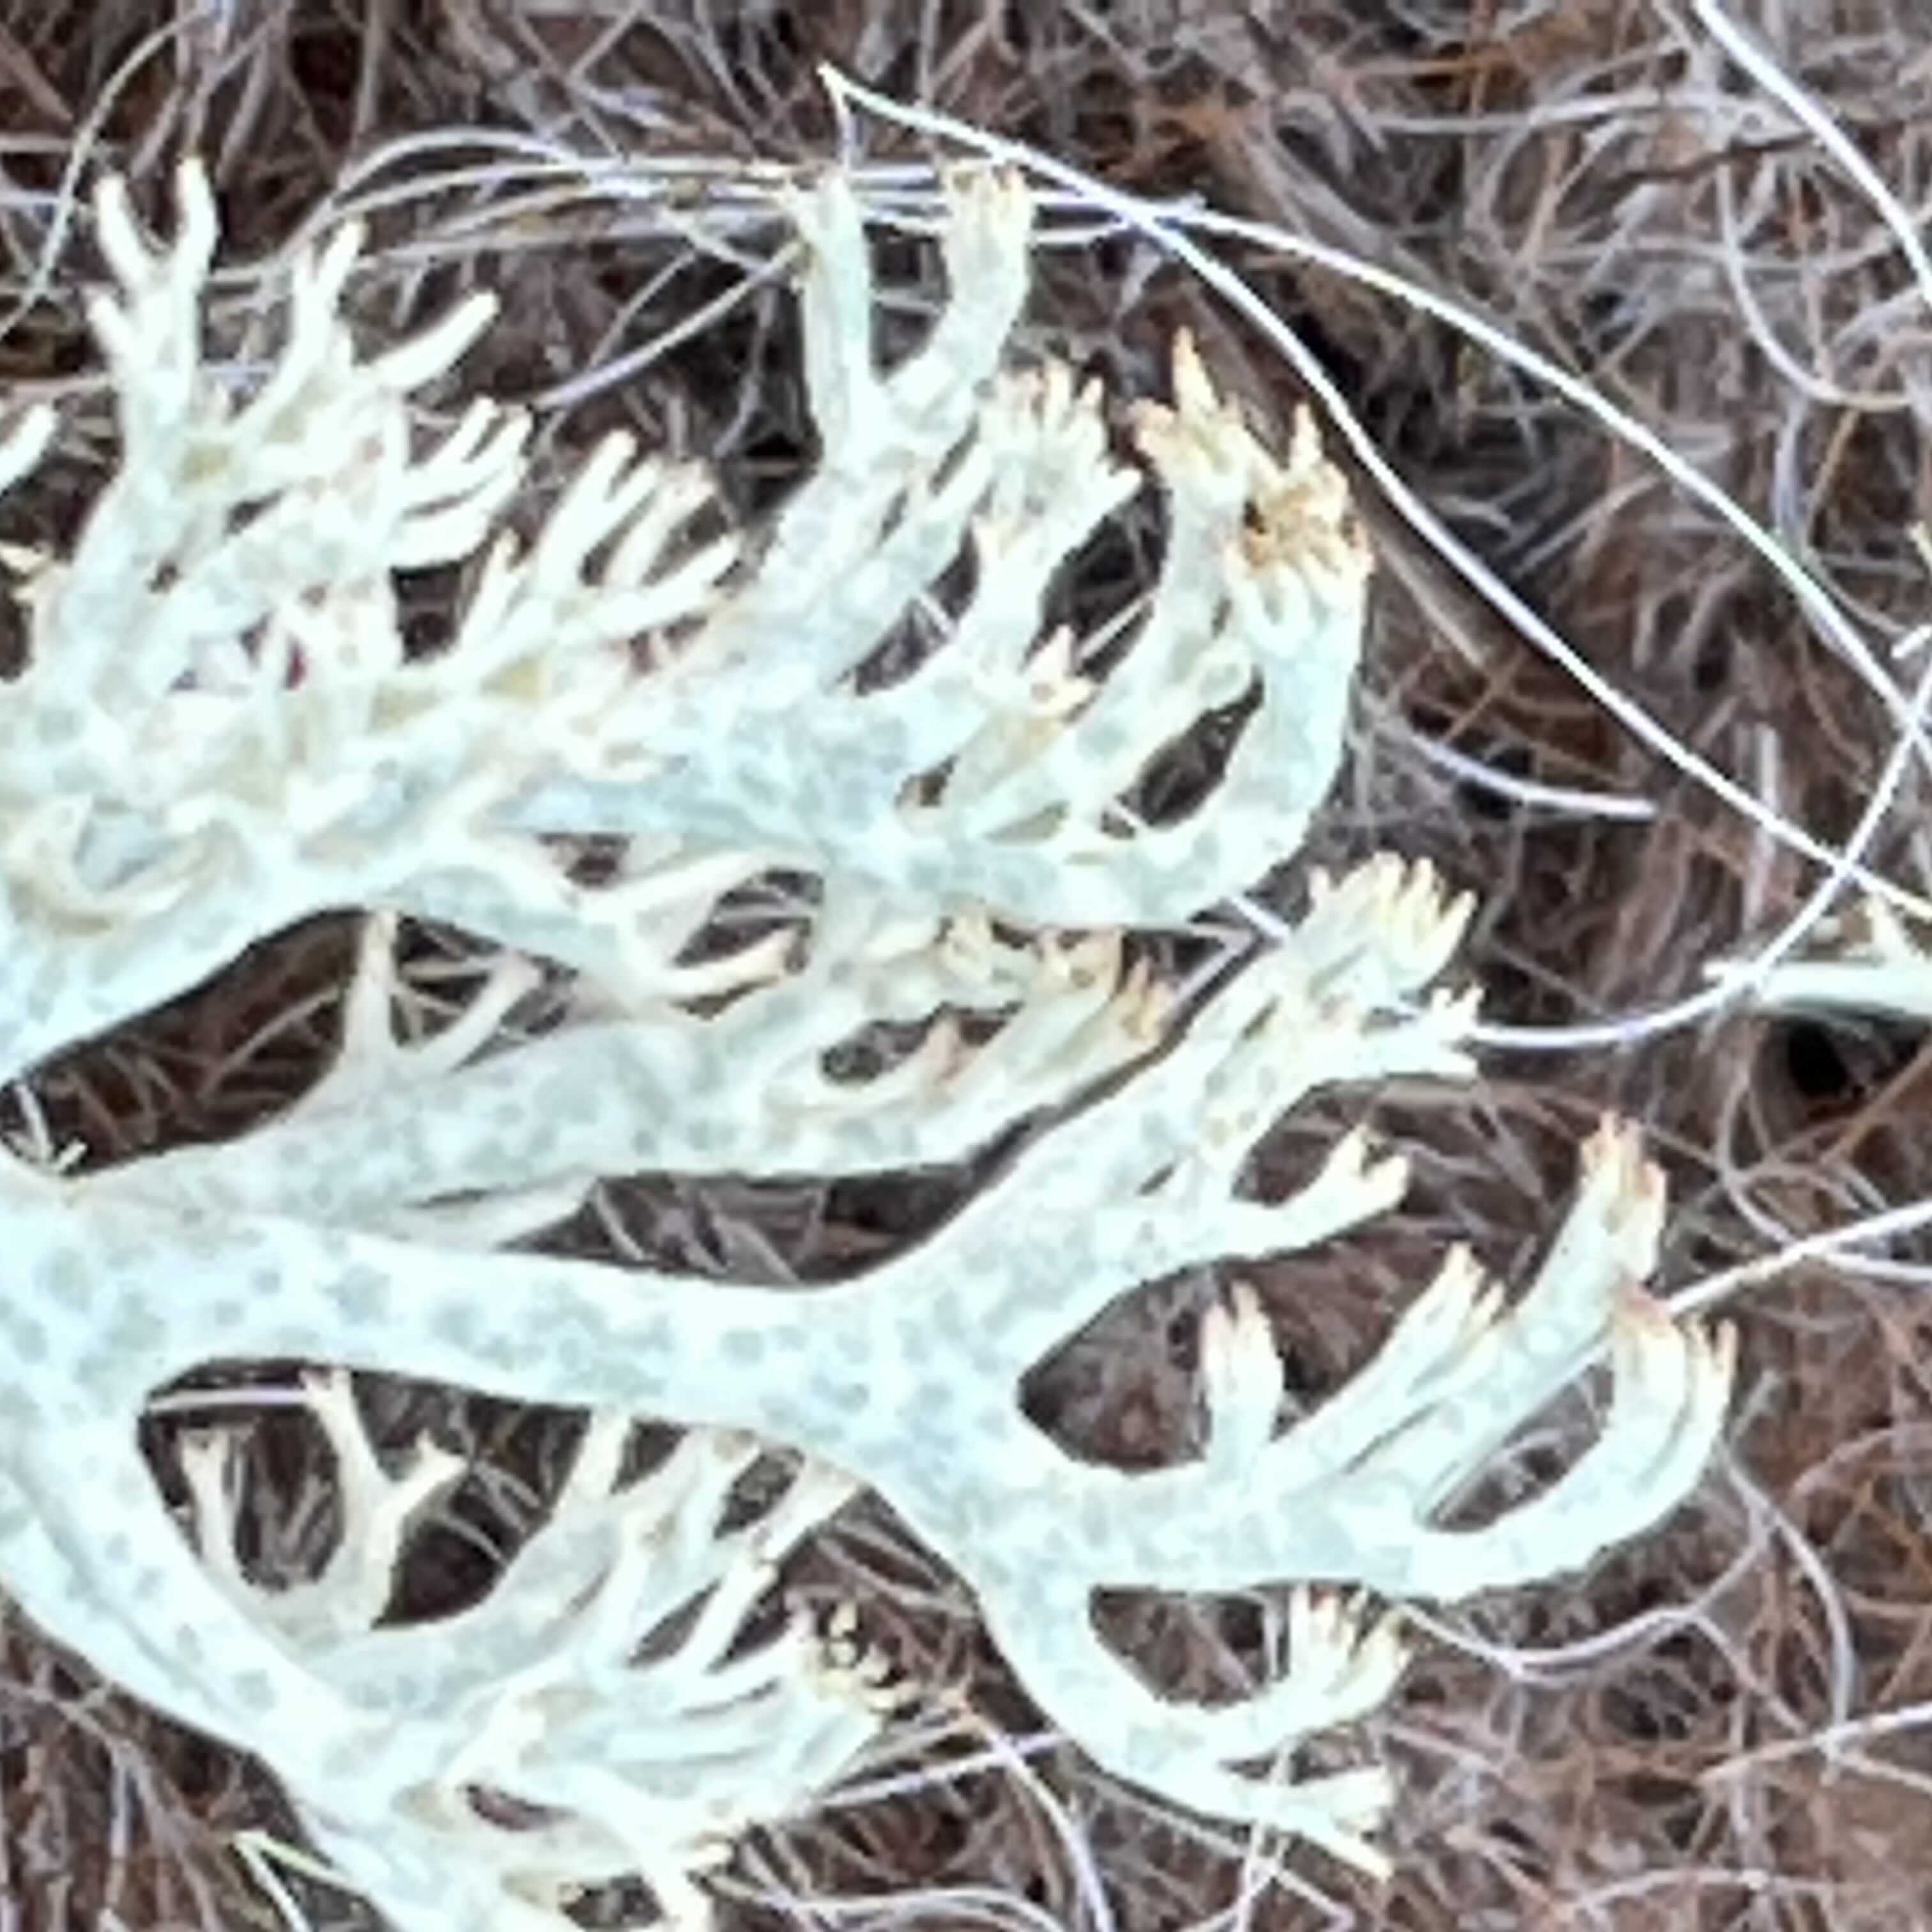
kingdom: Fungi
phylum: Ascomycota
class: Lecanoromycetes
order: Lecanorales
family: Cladoniaceae
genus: Cladonia
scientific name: Cladonia arbuscula
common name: gulhvid rensdyrlav
